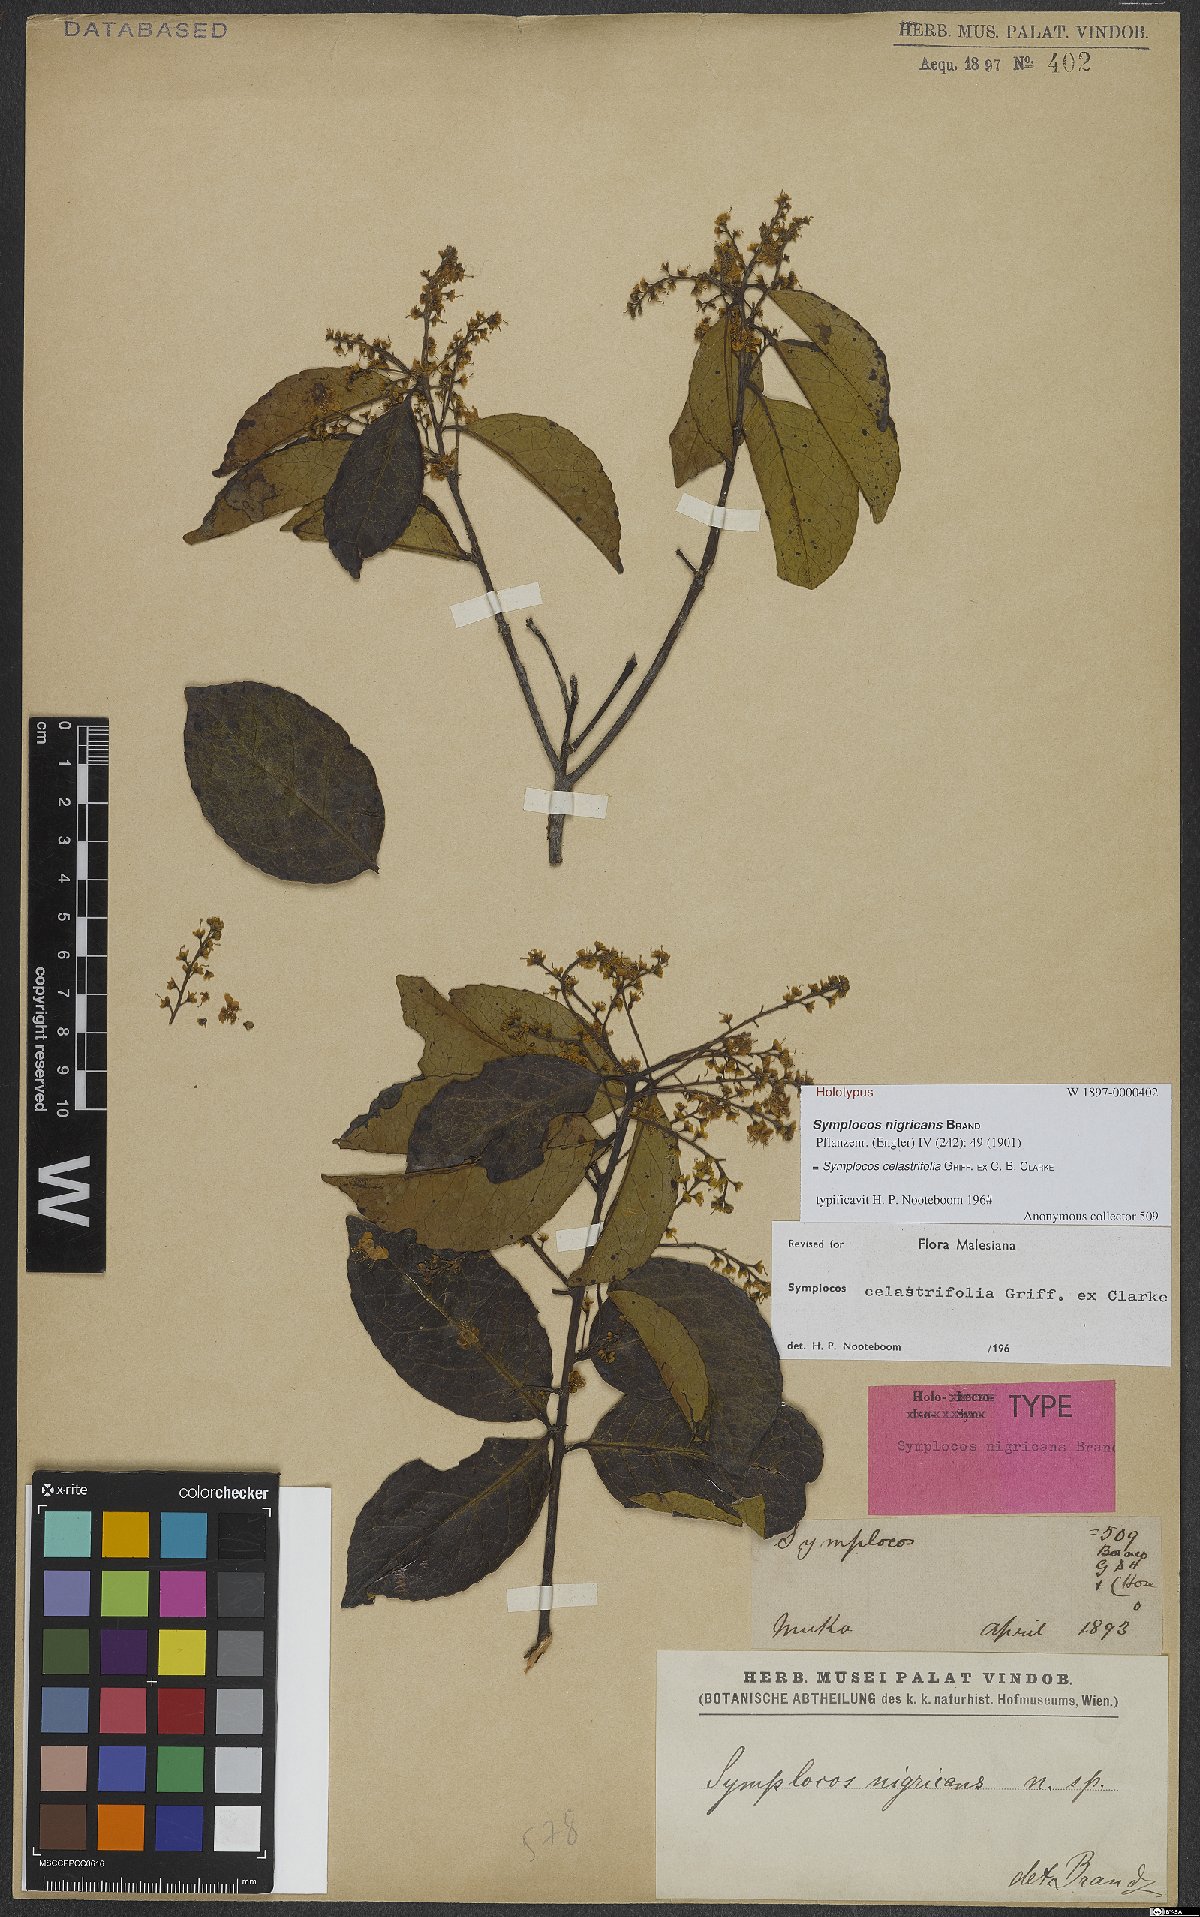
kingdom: Plantae
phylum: Tracheophyta
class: Magnoliopsida
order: Ericales
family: Symplocaceae
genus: Symplocos
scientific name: Symplocos celastrifolia
